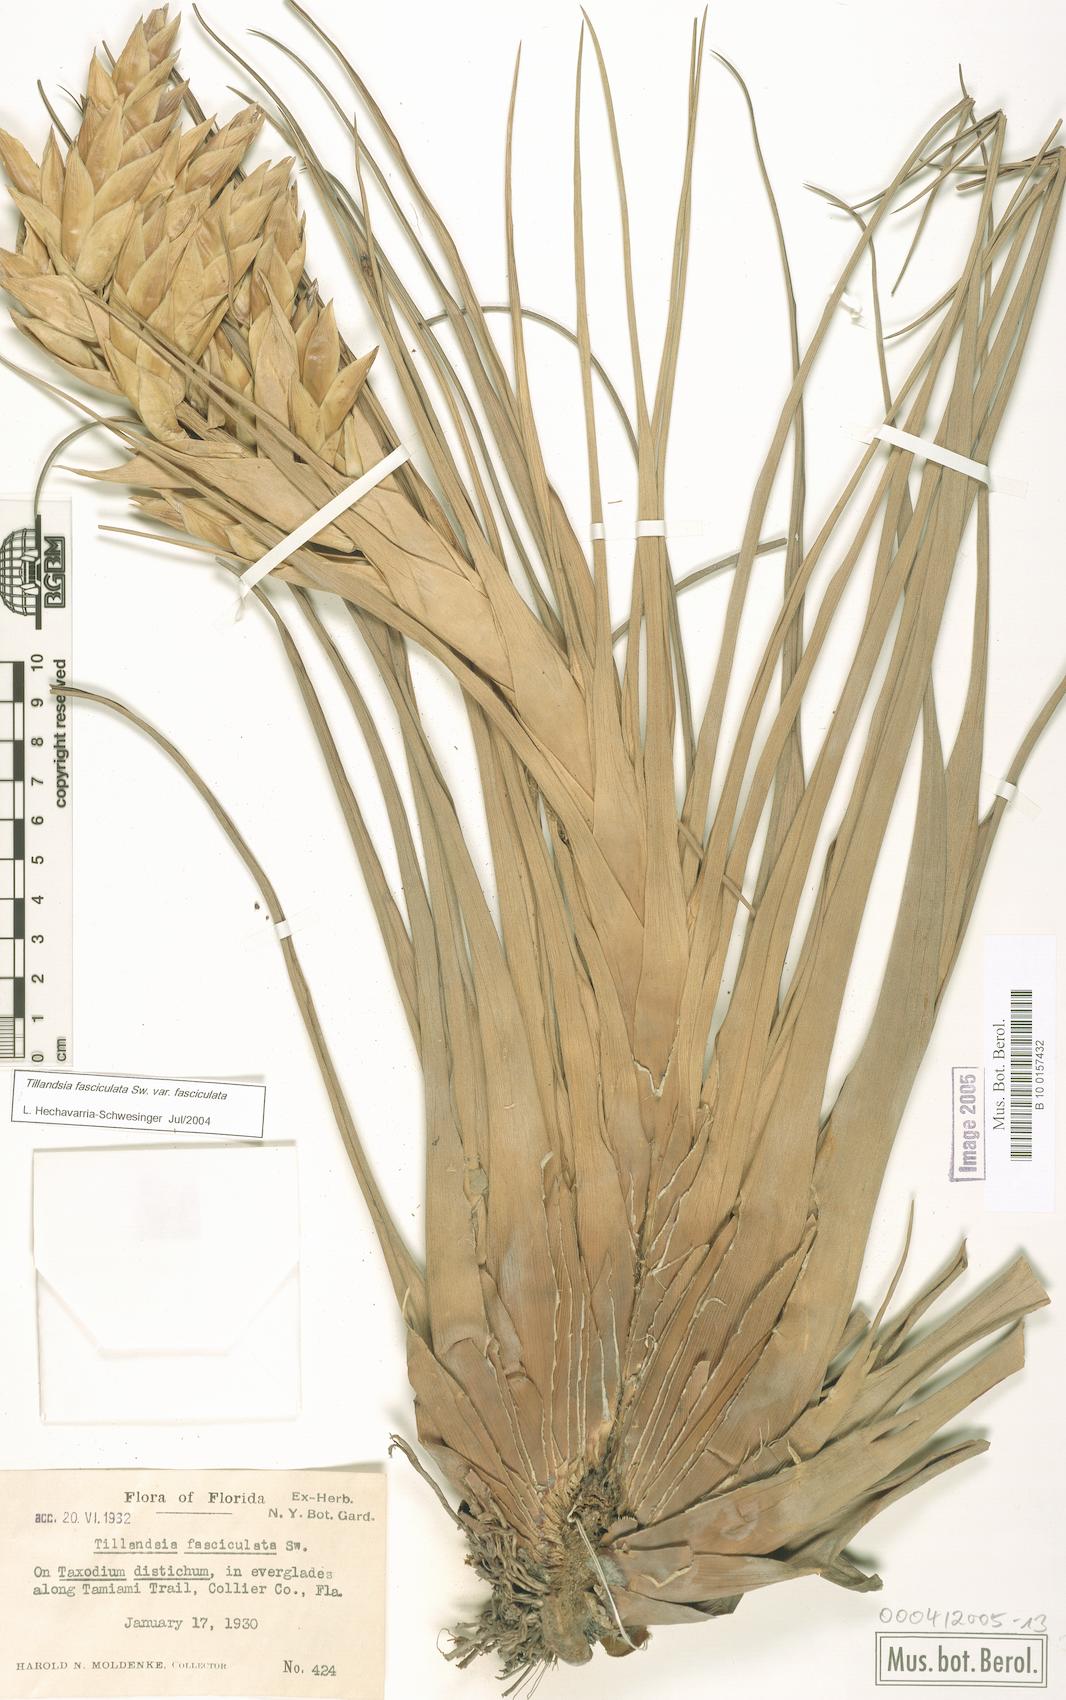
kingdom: Plantae
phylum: Tracheophyta
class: Liliopsida
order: Poales
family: Bromeliaceae
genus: Tillandsia
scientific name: Tillandsia fasciculata
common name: Giant airplant
